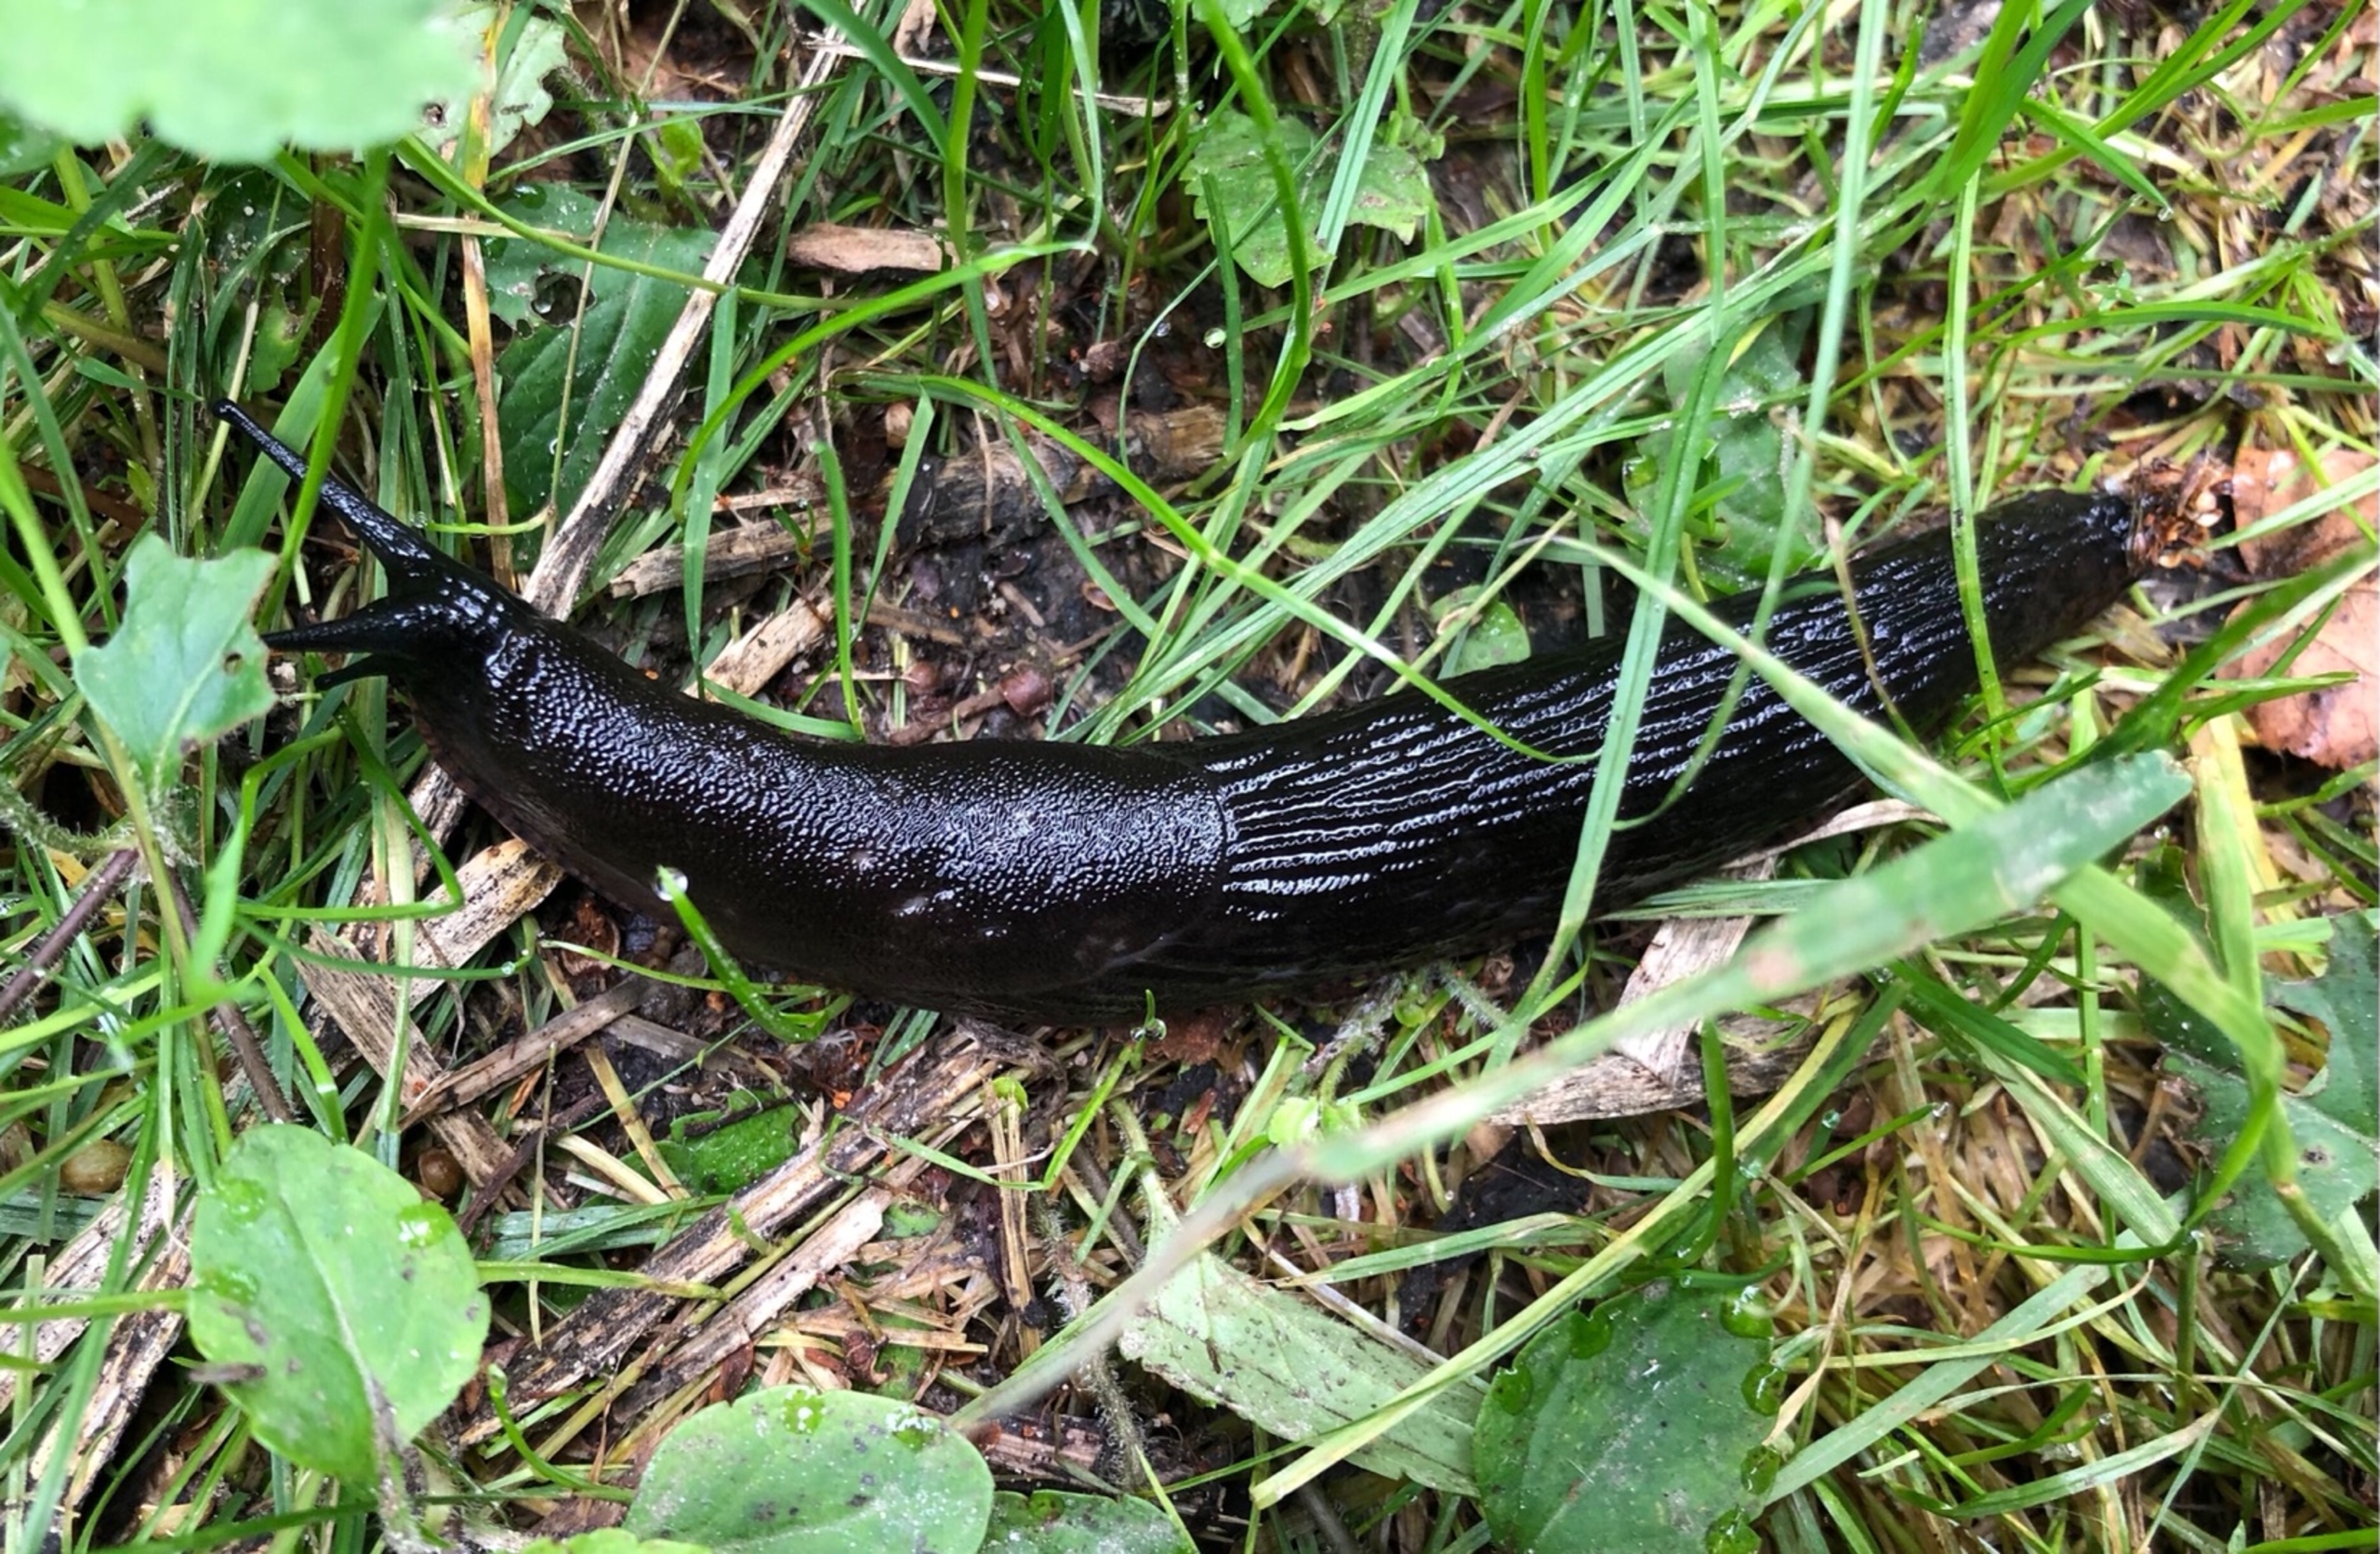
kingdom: Animalia
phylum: Mollusca
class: Gastropoda
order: Stylommatophora
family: Arionidae
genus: Arion
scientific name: Arion ater
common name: Sort skovsnegl
